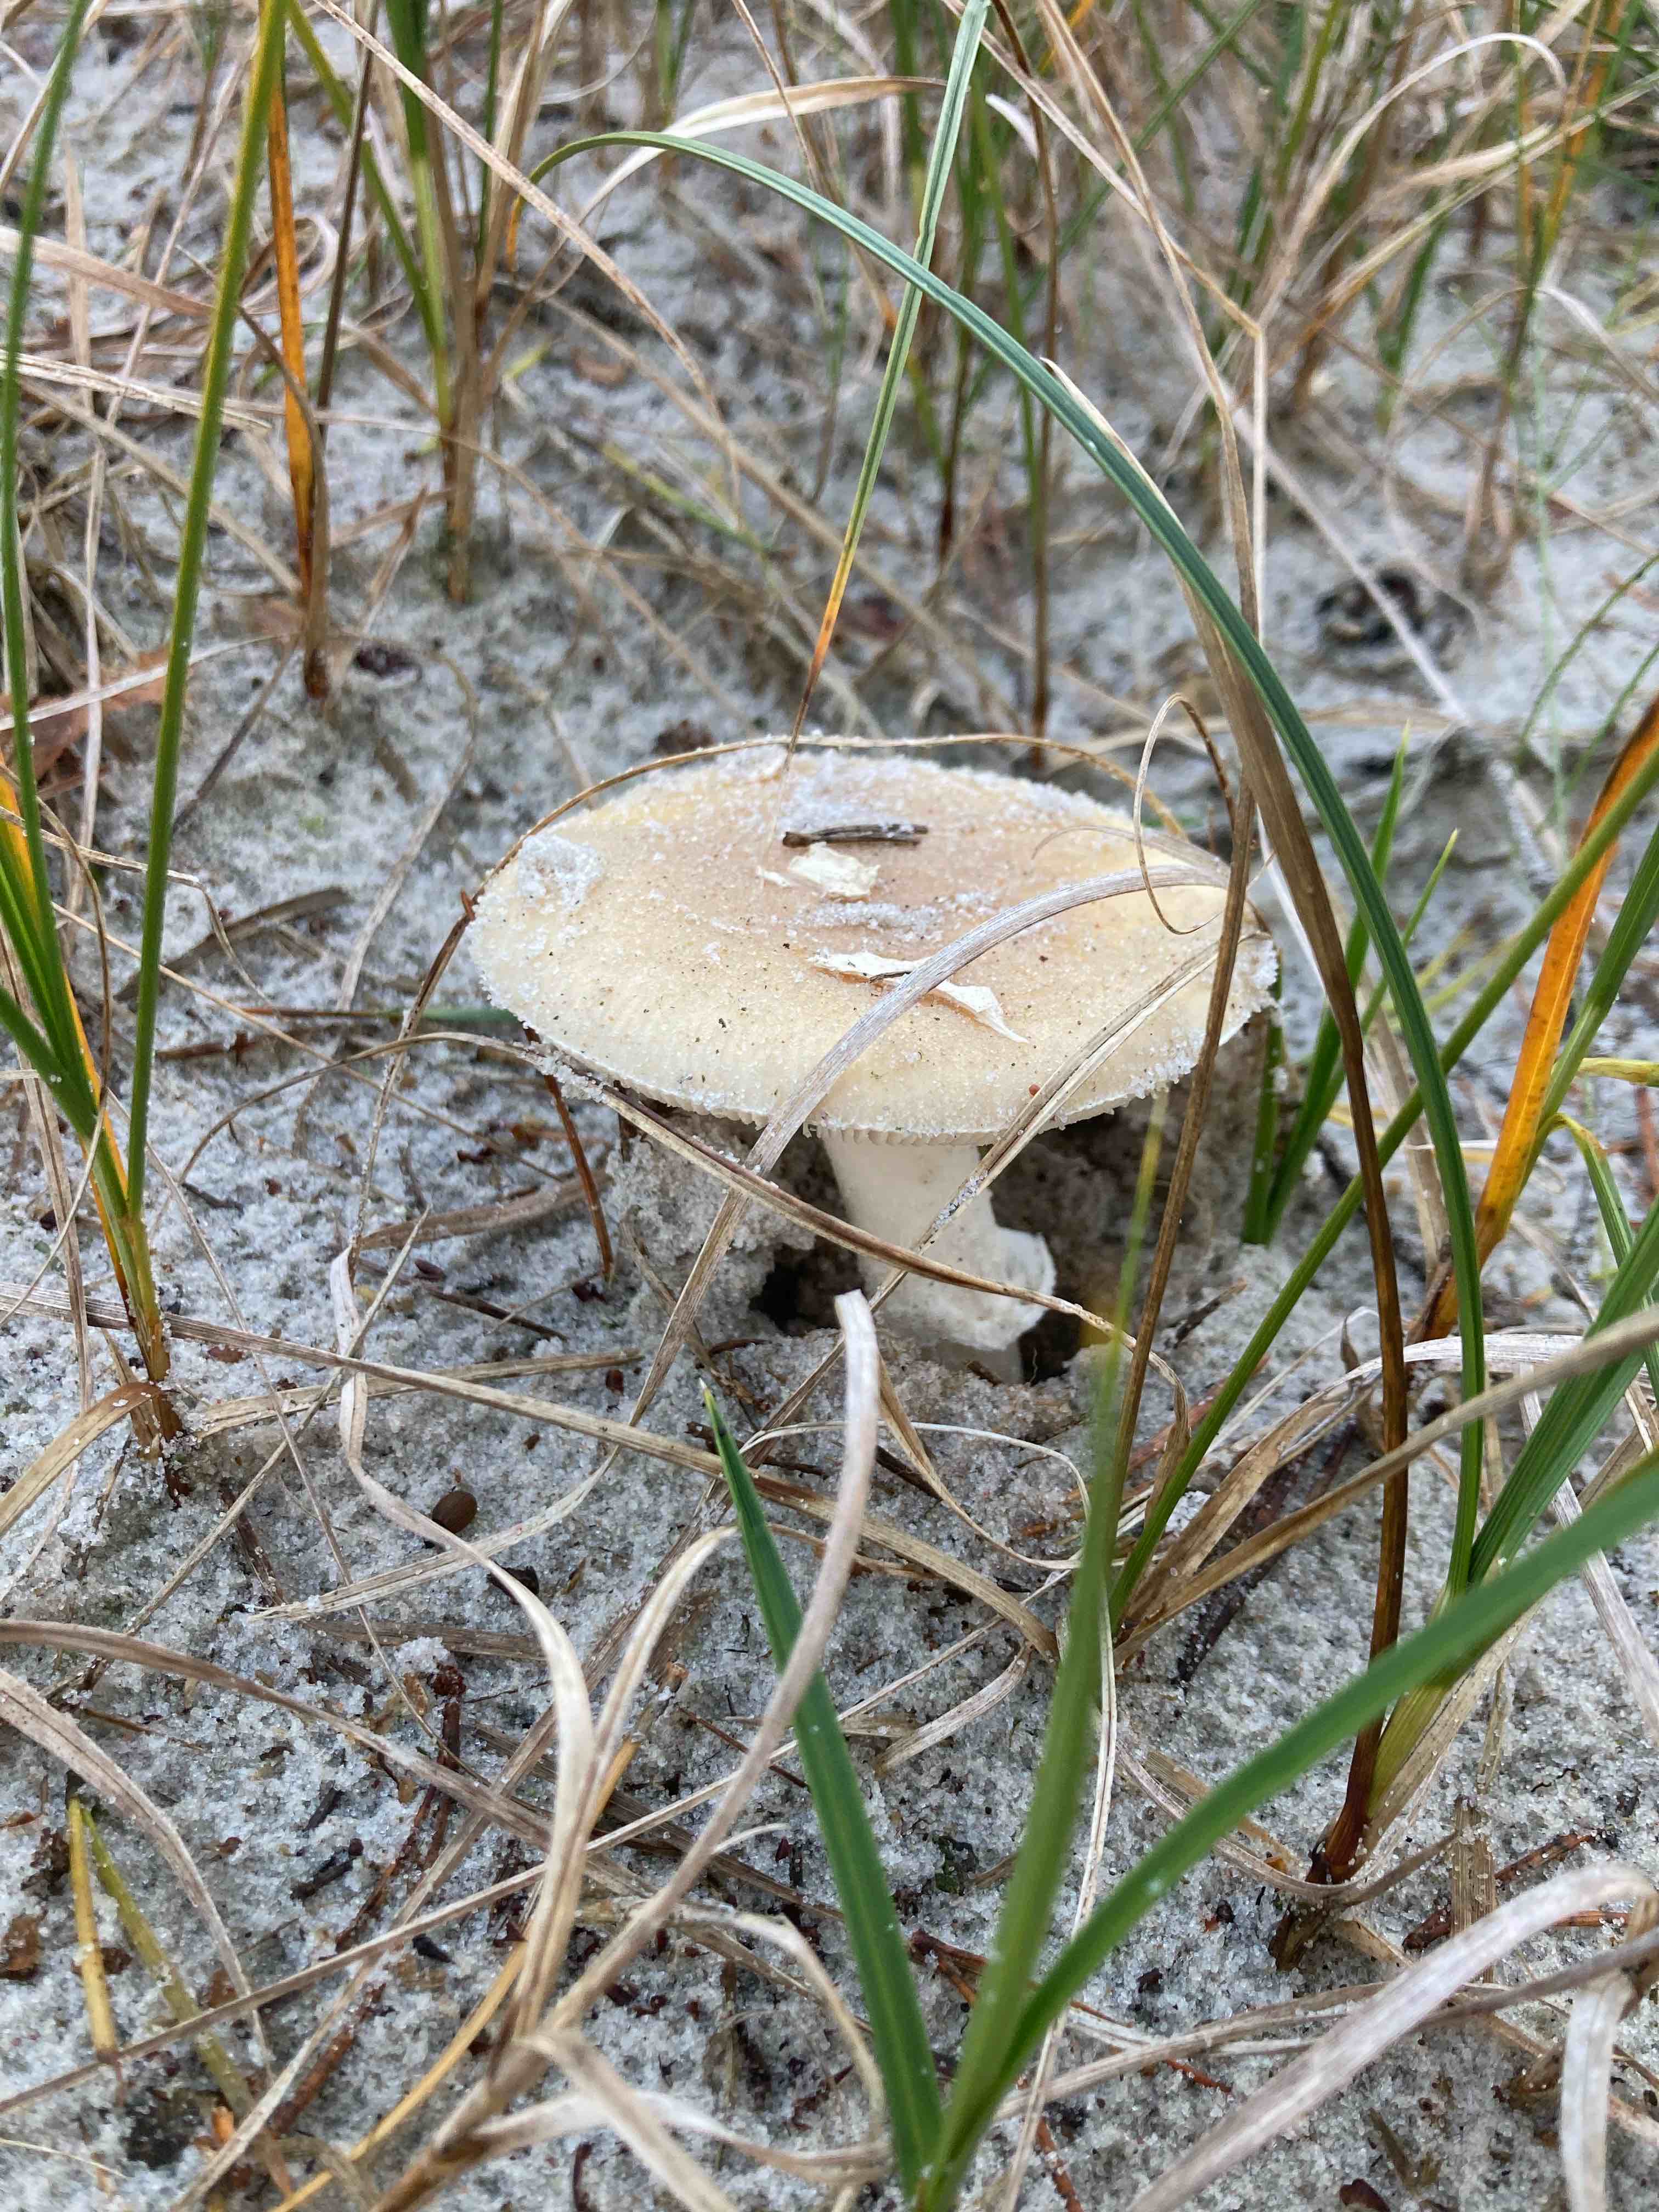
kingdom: Fungi
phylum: Basidiomycota
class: Agaricomycetes
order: Agaricales
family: Amanitaceae
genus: Amanita
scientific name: Amanita gemmata
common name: okkergul fluesvamp
